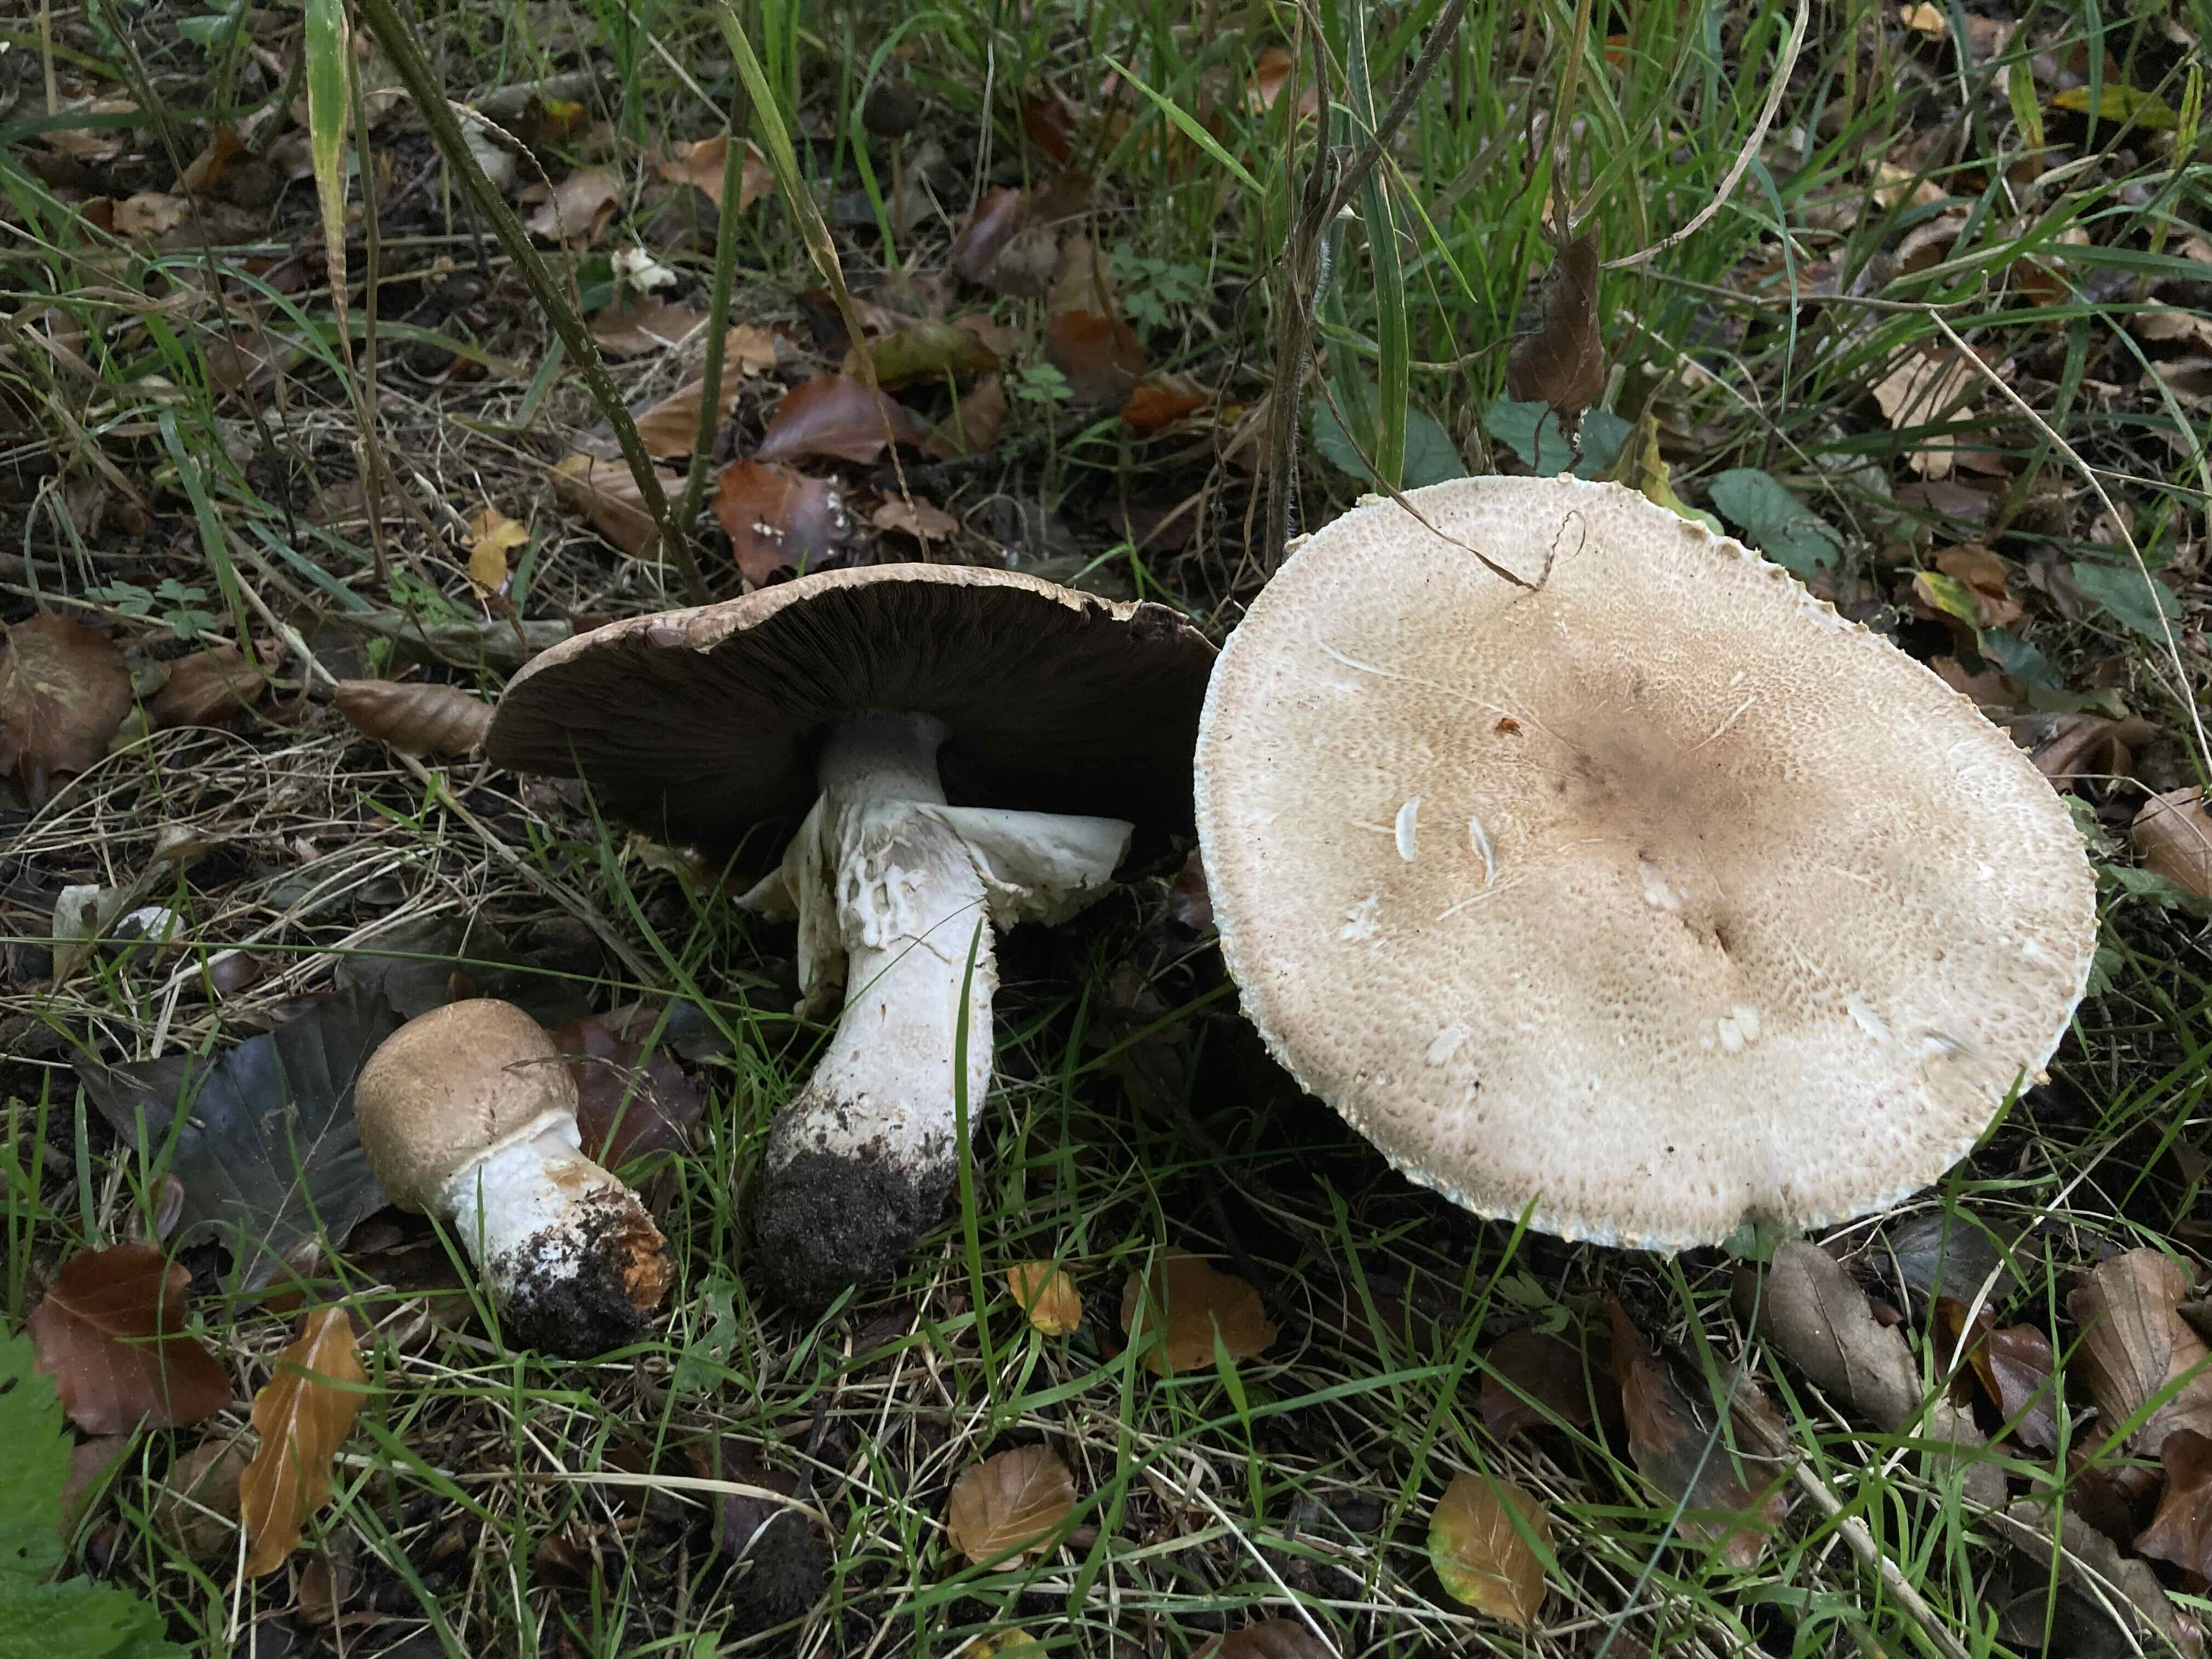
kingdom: Fungi
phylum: Basidiomycota
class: Agaricomycetes
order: Agaricales
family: Agaricaceae
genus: Agaricus
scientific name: Agaricus augustus
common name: prægtig champignon
